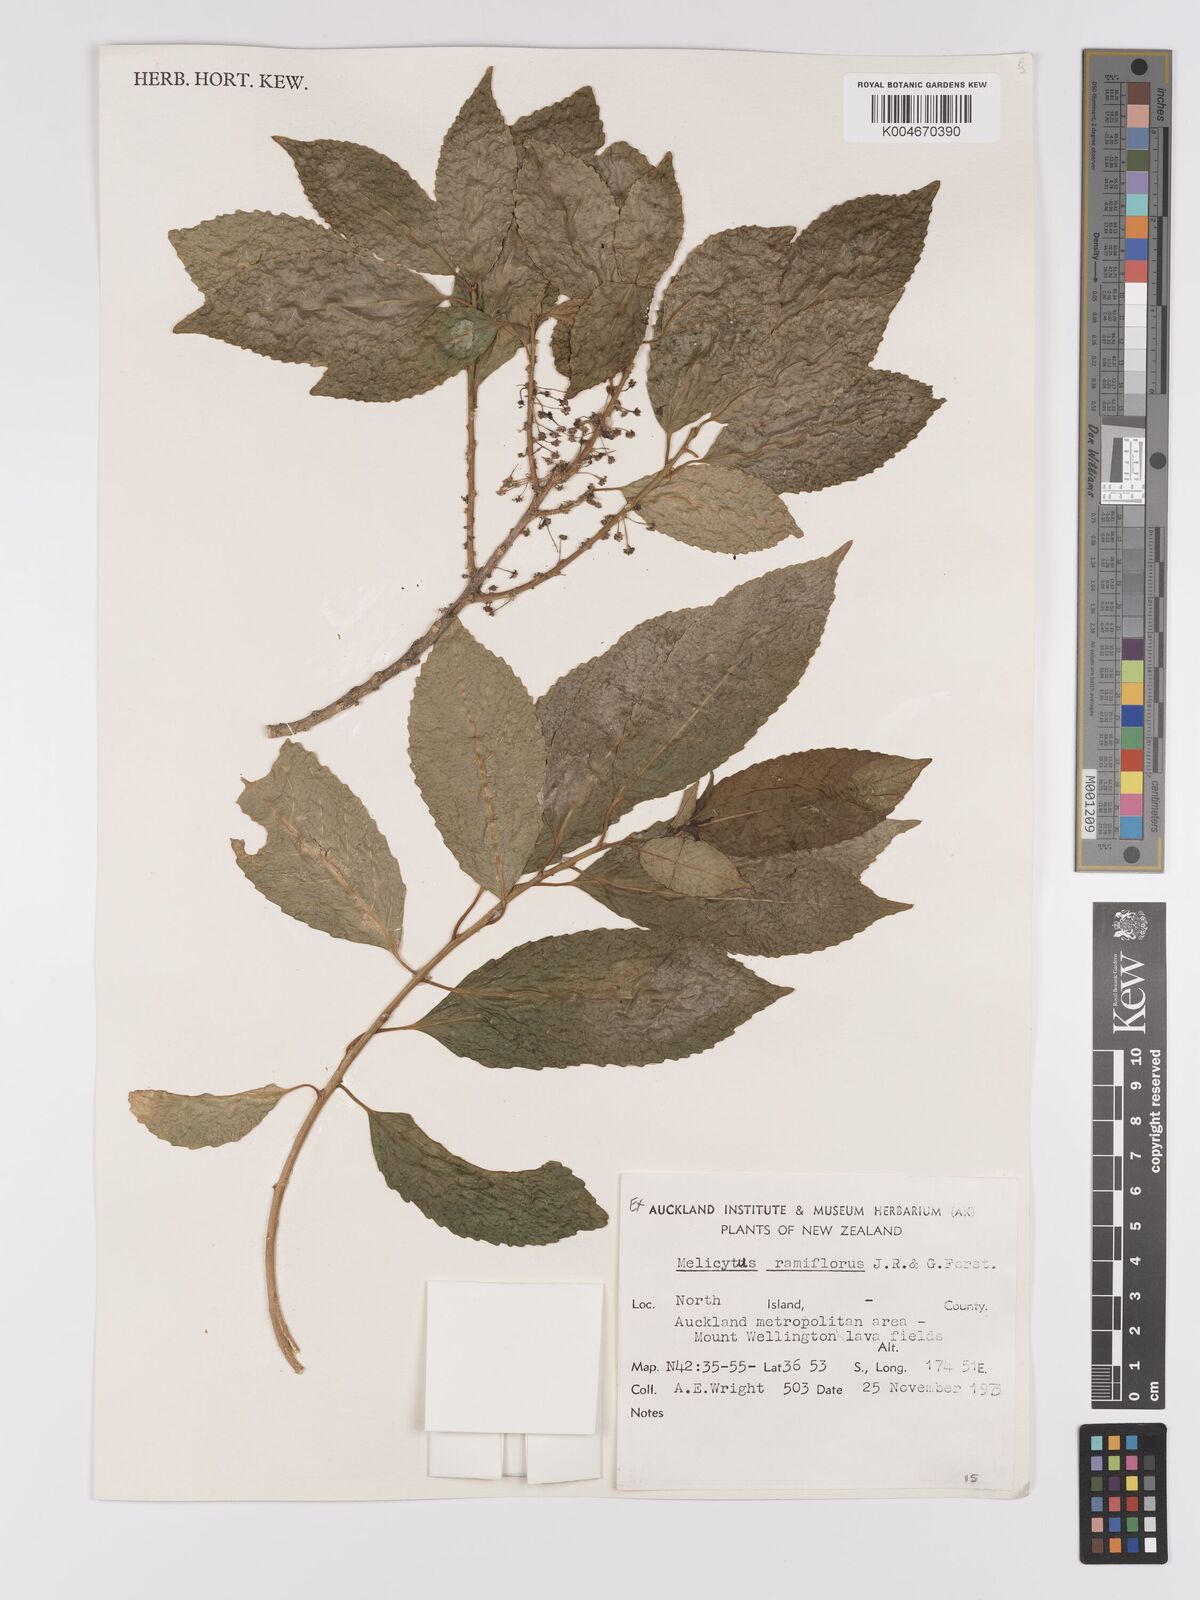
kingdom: Plantae
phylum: Tracheophyta
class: Magnoliopsida
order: Malpighiales
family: Violaceae
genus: Melicytus
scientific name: Melicytus ramiflorus
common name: Mahoe
